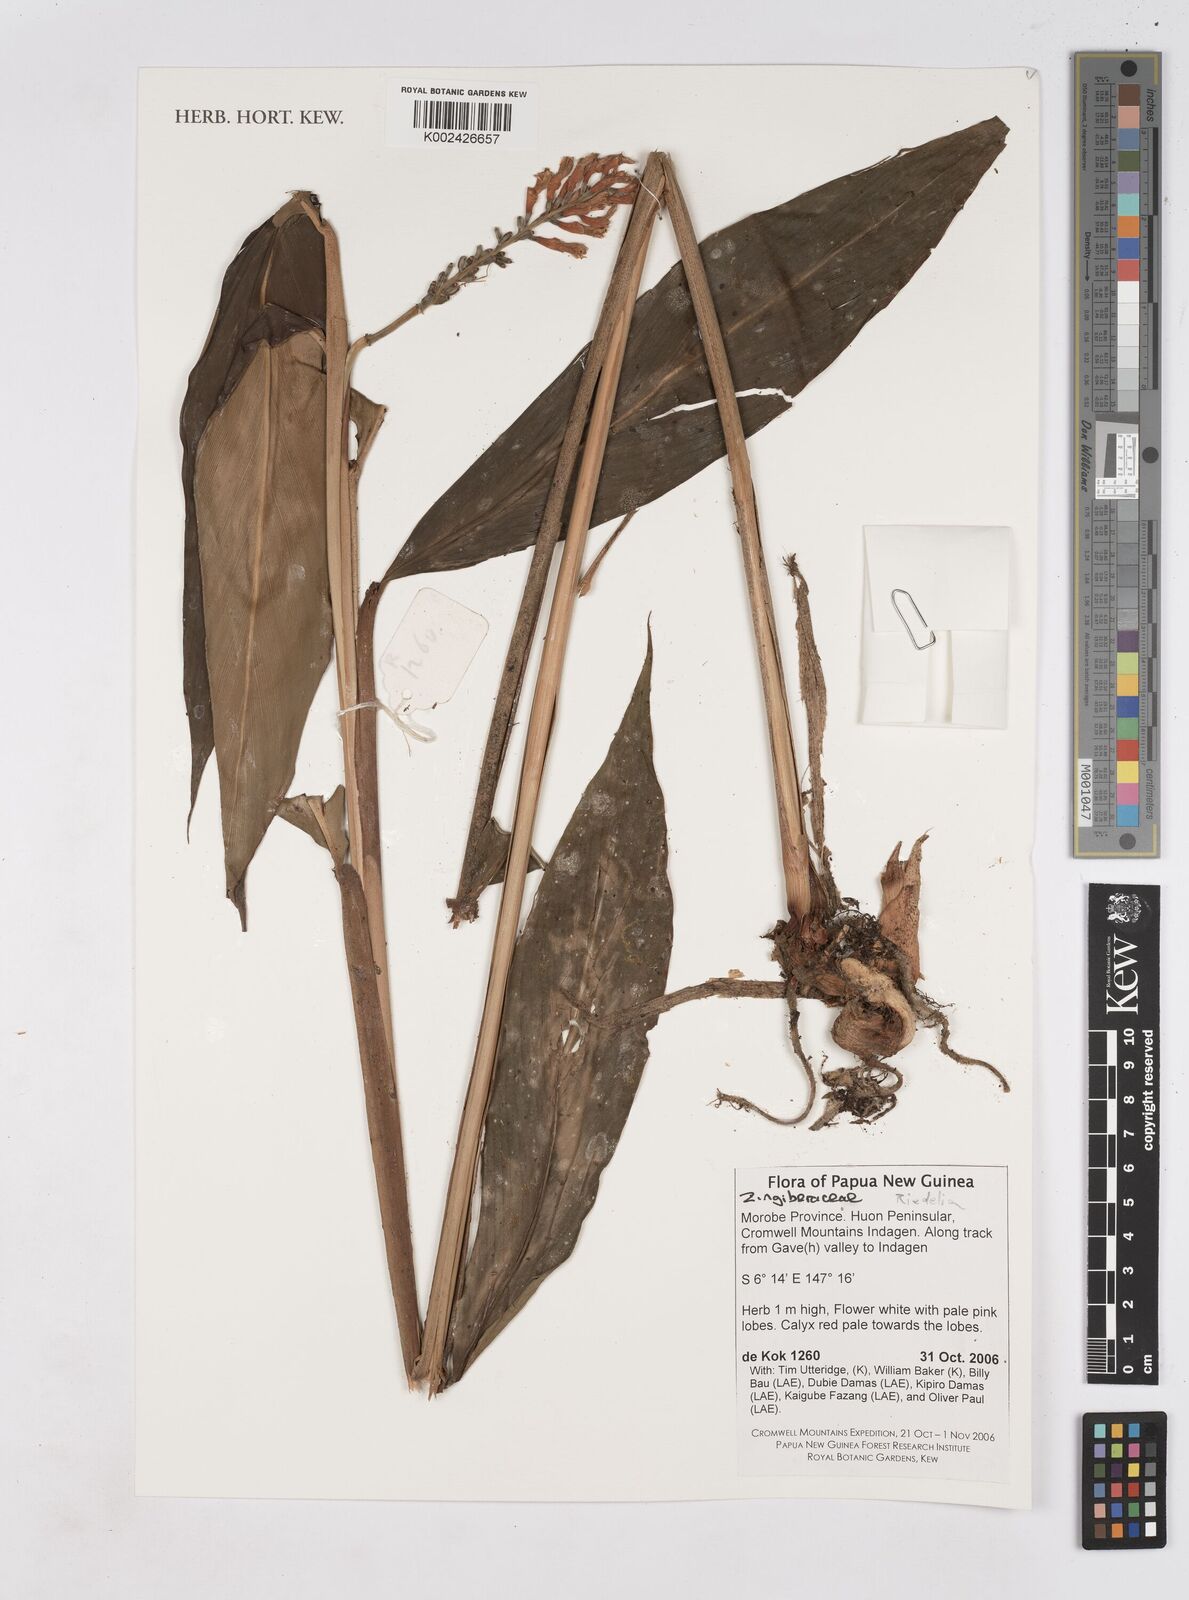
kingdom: Plantae
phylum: Tracheophyta
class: Liliopsida
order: Zingiberales
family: Zingiberaceae
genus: Riedelia
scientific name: Riedelia
